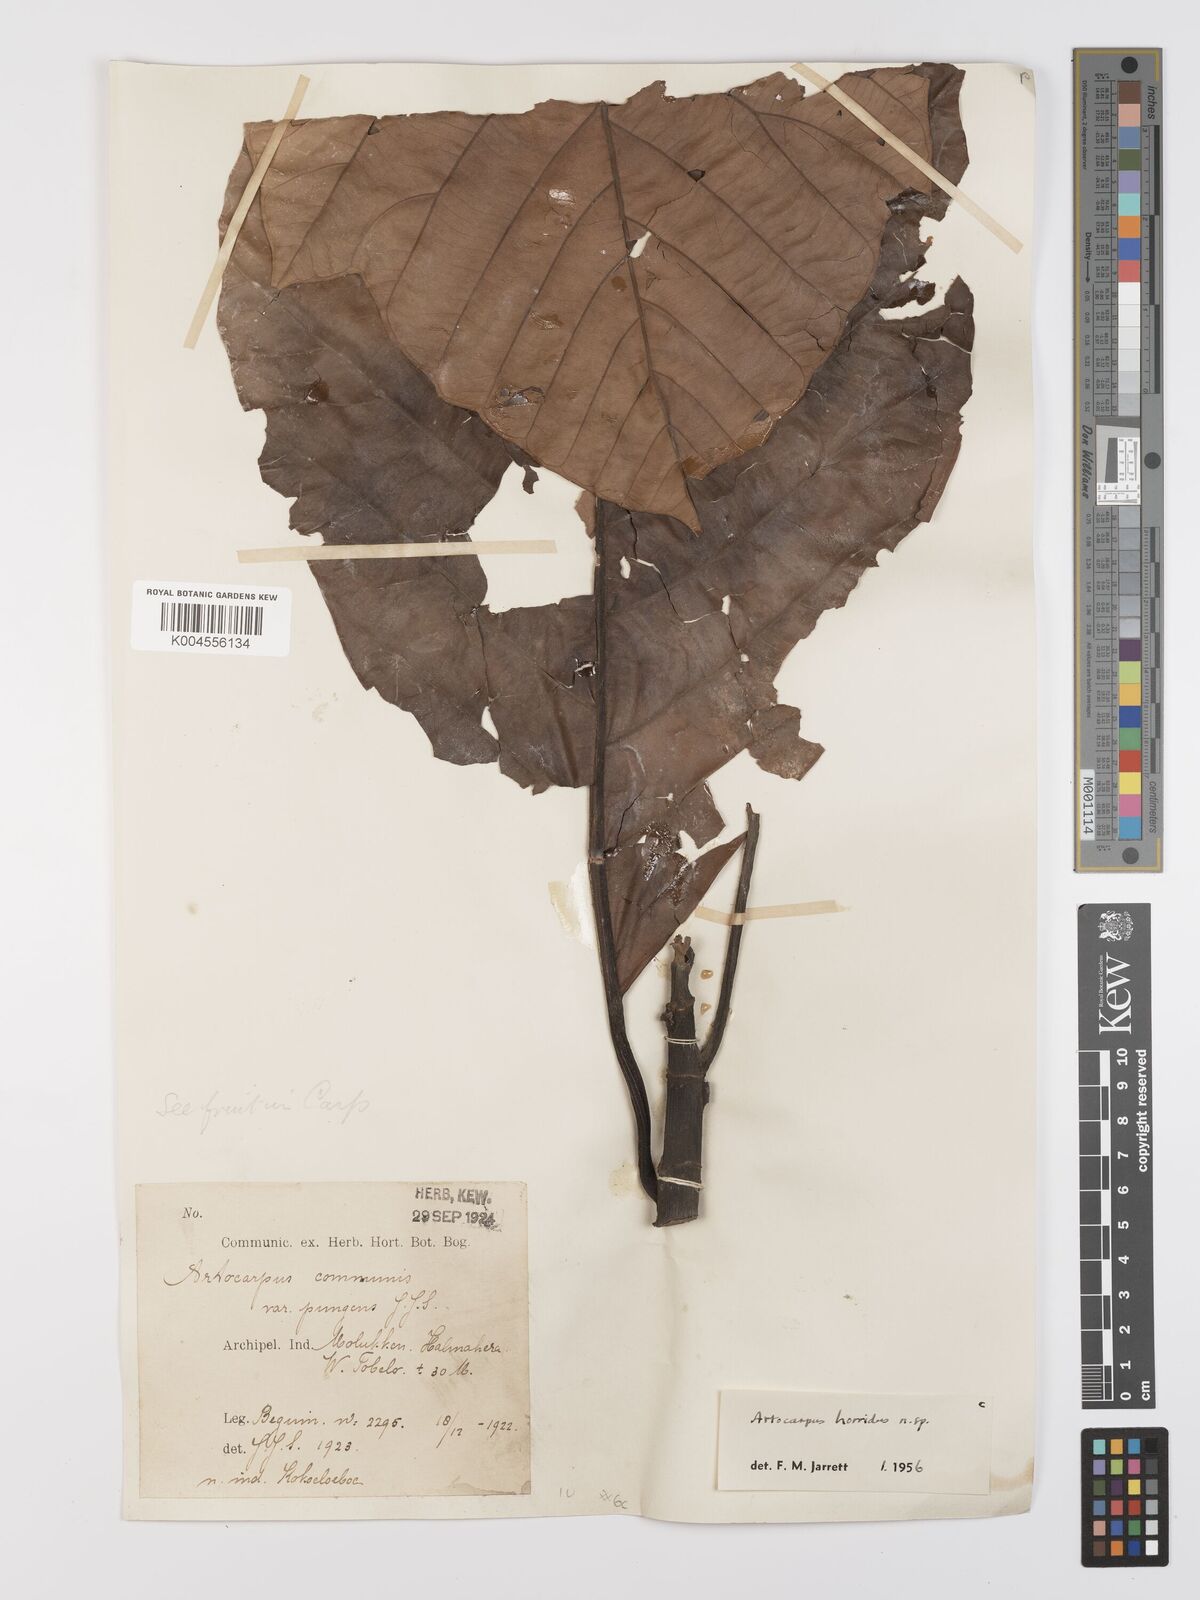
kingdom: Plantae
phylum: Tracheophyta
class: Magnoliopsida
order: Rosales
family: Moraceae
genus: Artocarpus
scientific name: Artocarpus altilis
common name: Breadfruit
